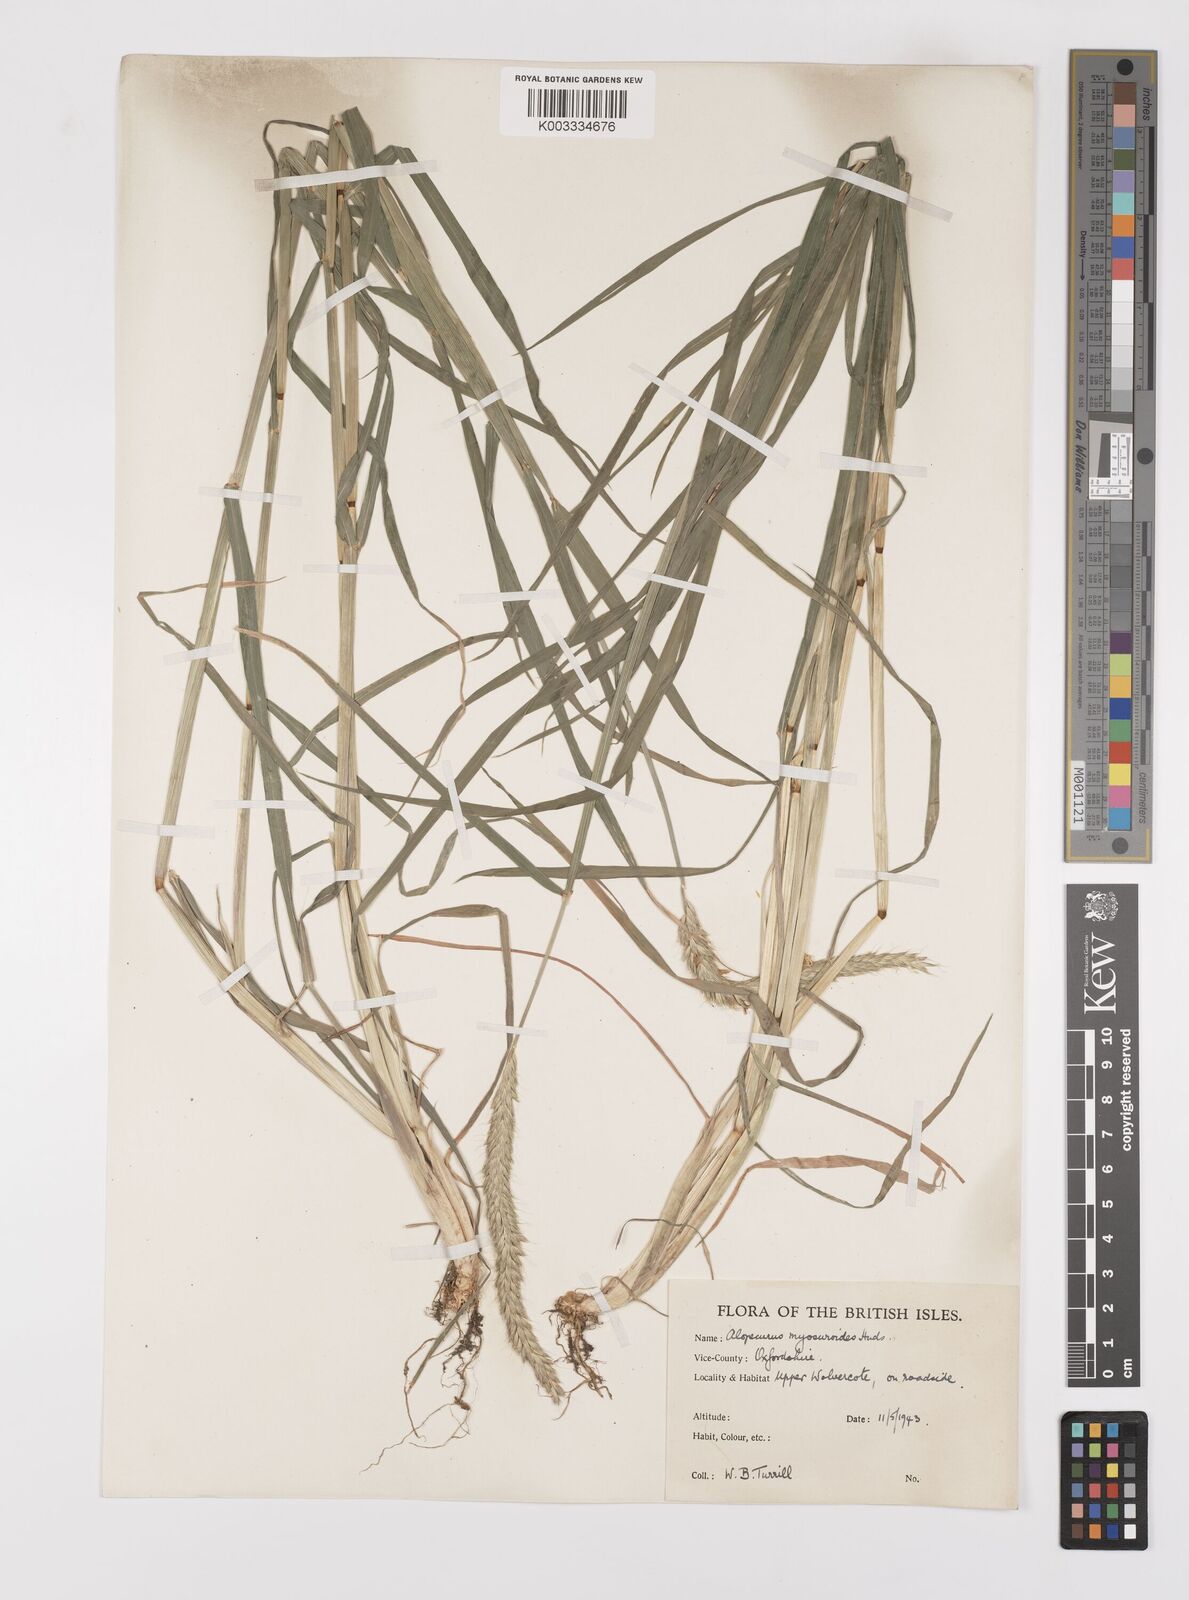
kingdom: Plantae
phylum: Tracheophyta
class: Liliopsida
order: Poales
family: Poaceae
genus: Alopecurus
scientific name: Alopecurus myosuroides
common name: Black-grass
